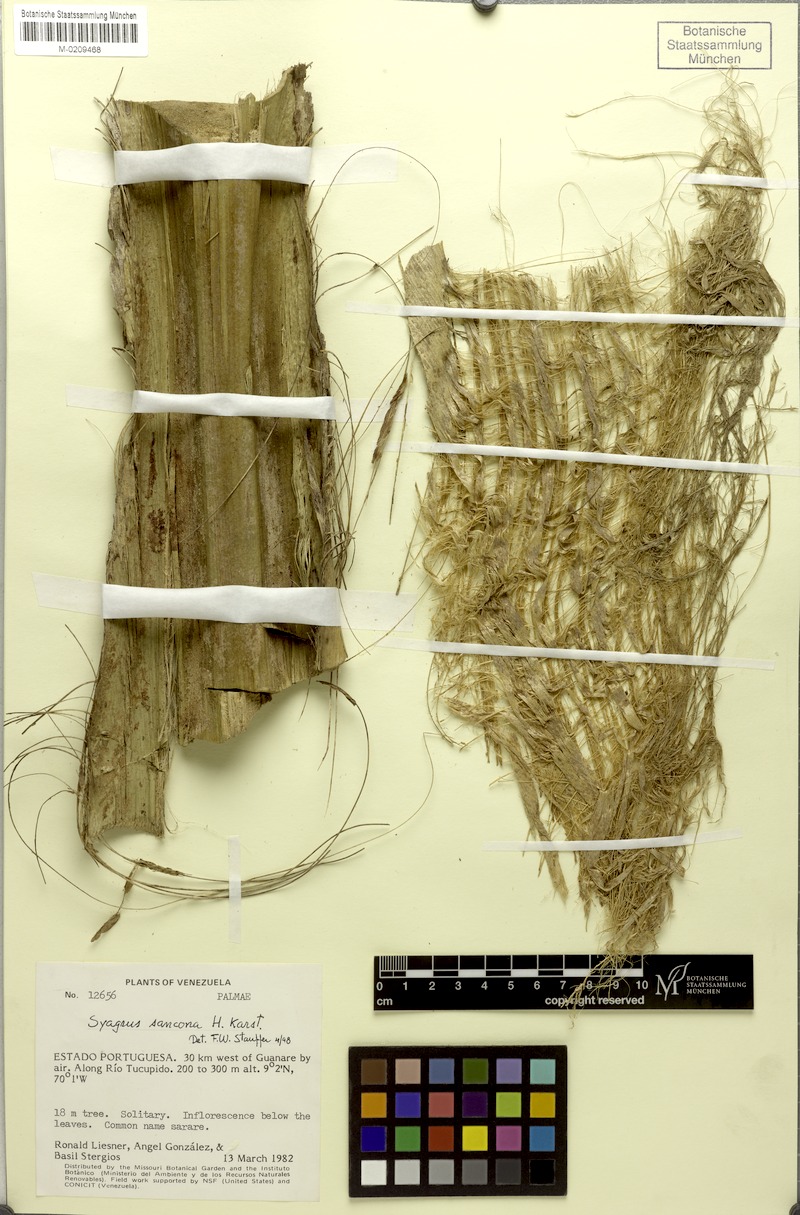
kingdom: Plantae
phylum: Tracheophyta
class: Liliopsida
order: Arecales
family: Arecaceae
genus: Syagrus
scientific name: Syagrus sancona
